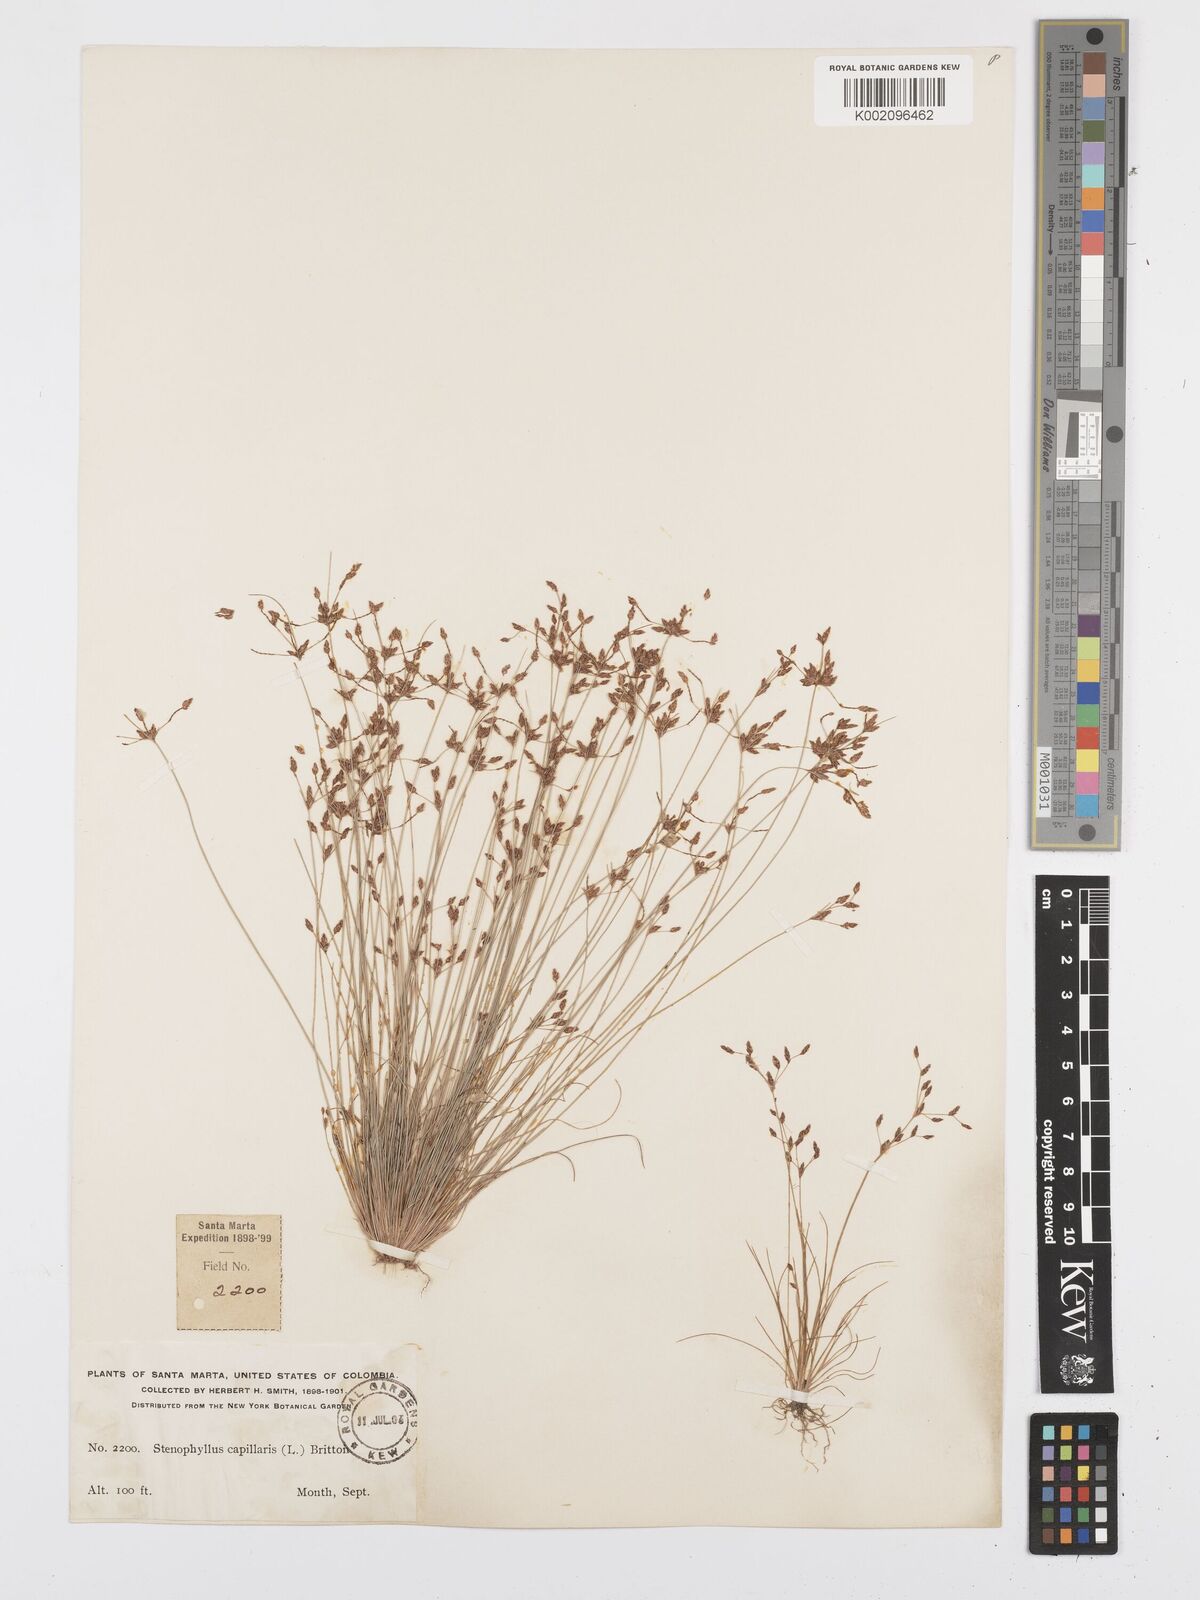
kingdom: Plantae
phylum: Tracheophyta
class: Liliopsida
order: Poales
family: Cyperaceae
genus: Bulbostylis
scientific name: Bulbostylis tenuifolia
